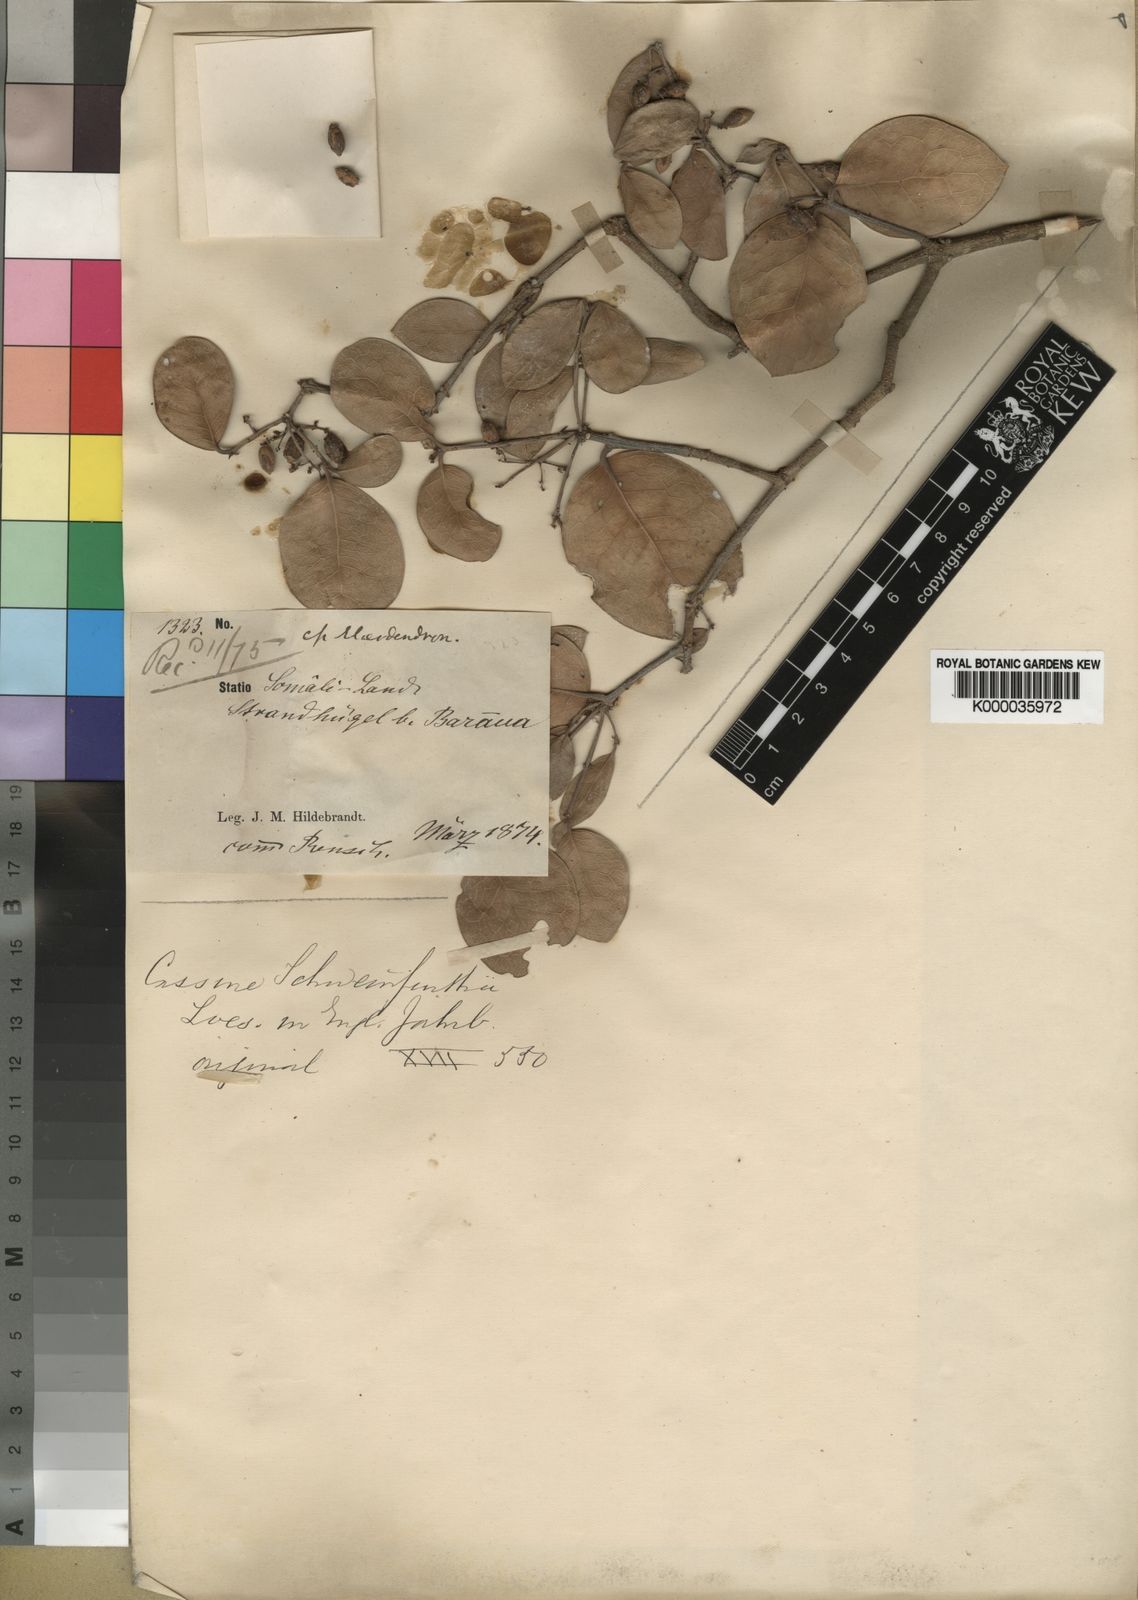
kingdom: Plantae
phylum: Tracheophyta
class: Magnoliopsida
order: Celastrales
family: Celastraceae
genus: Elaeodendron
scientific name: Elaeodendron schweinfurthianum
